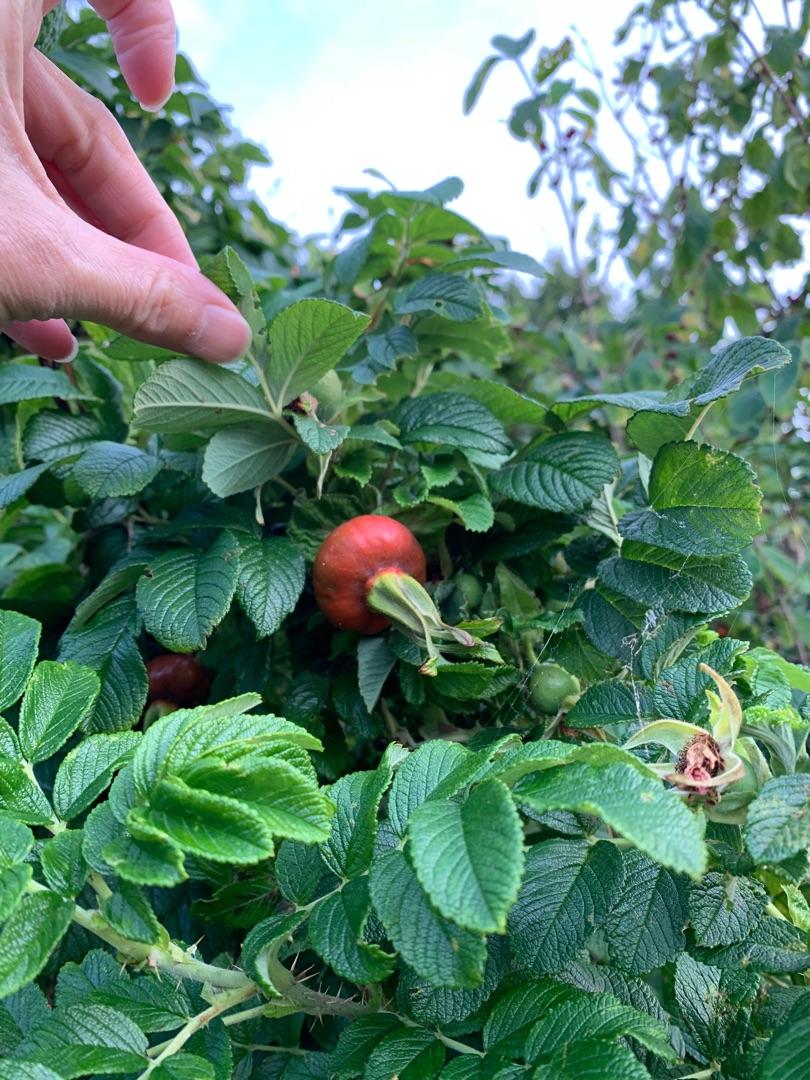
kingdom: Plantae
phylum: Tracheophyta
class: Magnoliopsida
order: Rosales
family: Rosaceae
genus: Rosa
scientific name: Rosa rugosa
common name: Rynket rose
